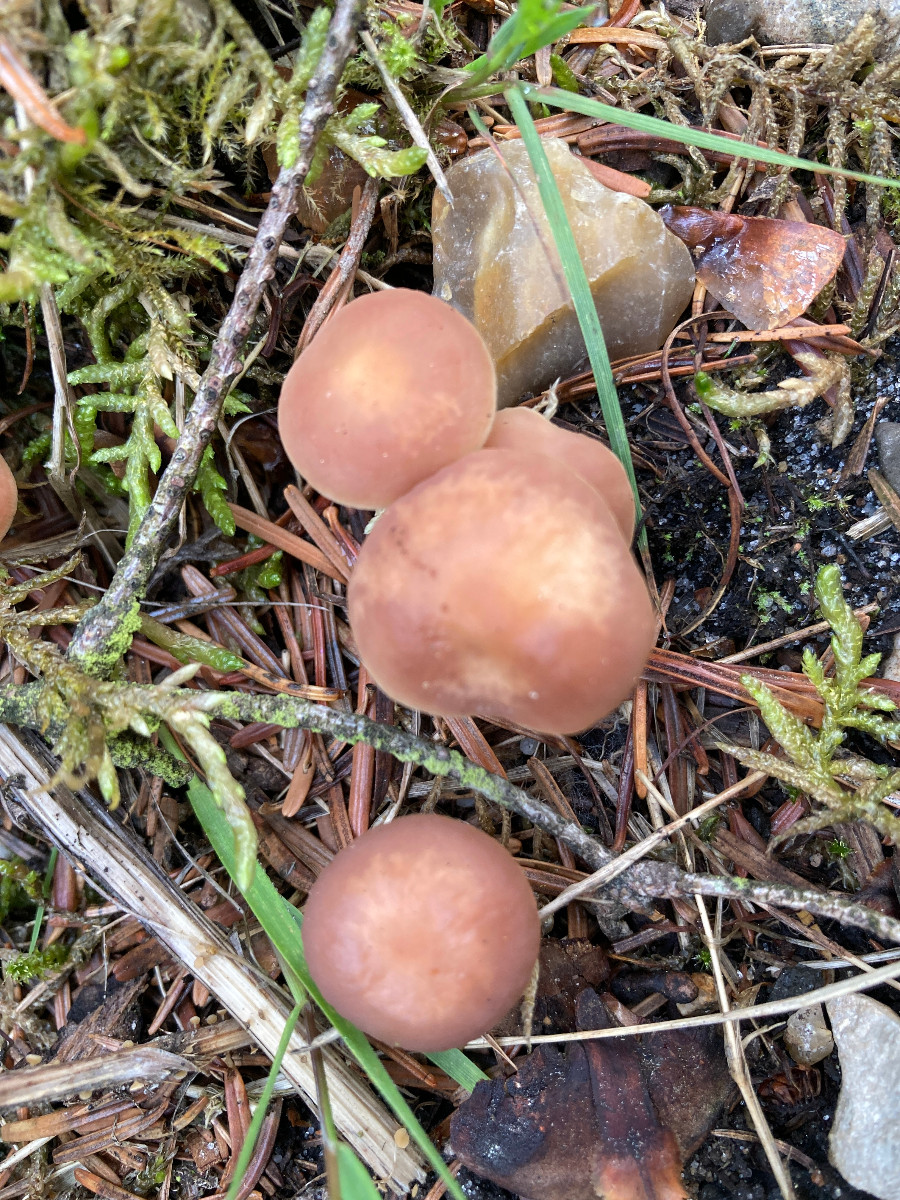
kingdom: Fungi
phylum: Basidiomycota
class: Agaricomycetes
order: Agaricales
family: Omphalotaceae
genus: Connopus
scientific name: Connopus acervatus
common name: tue-fladhat
